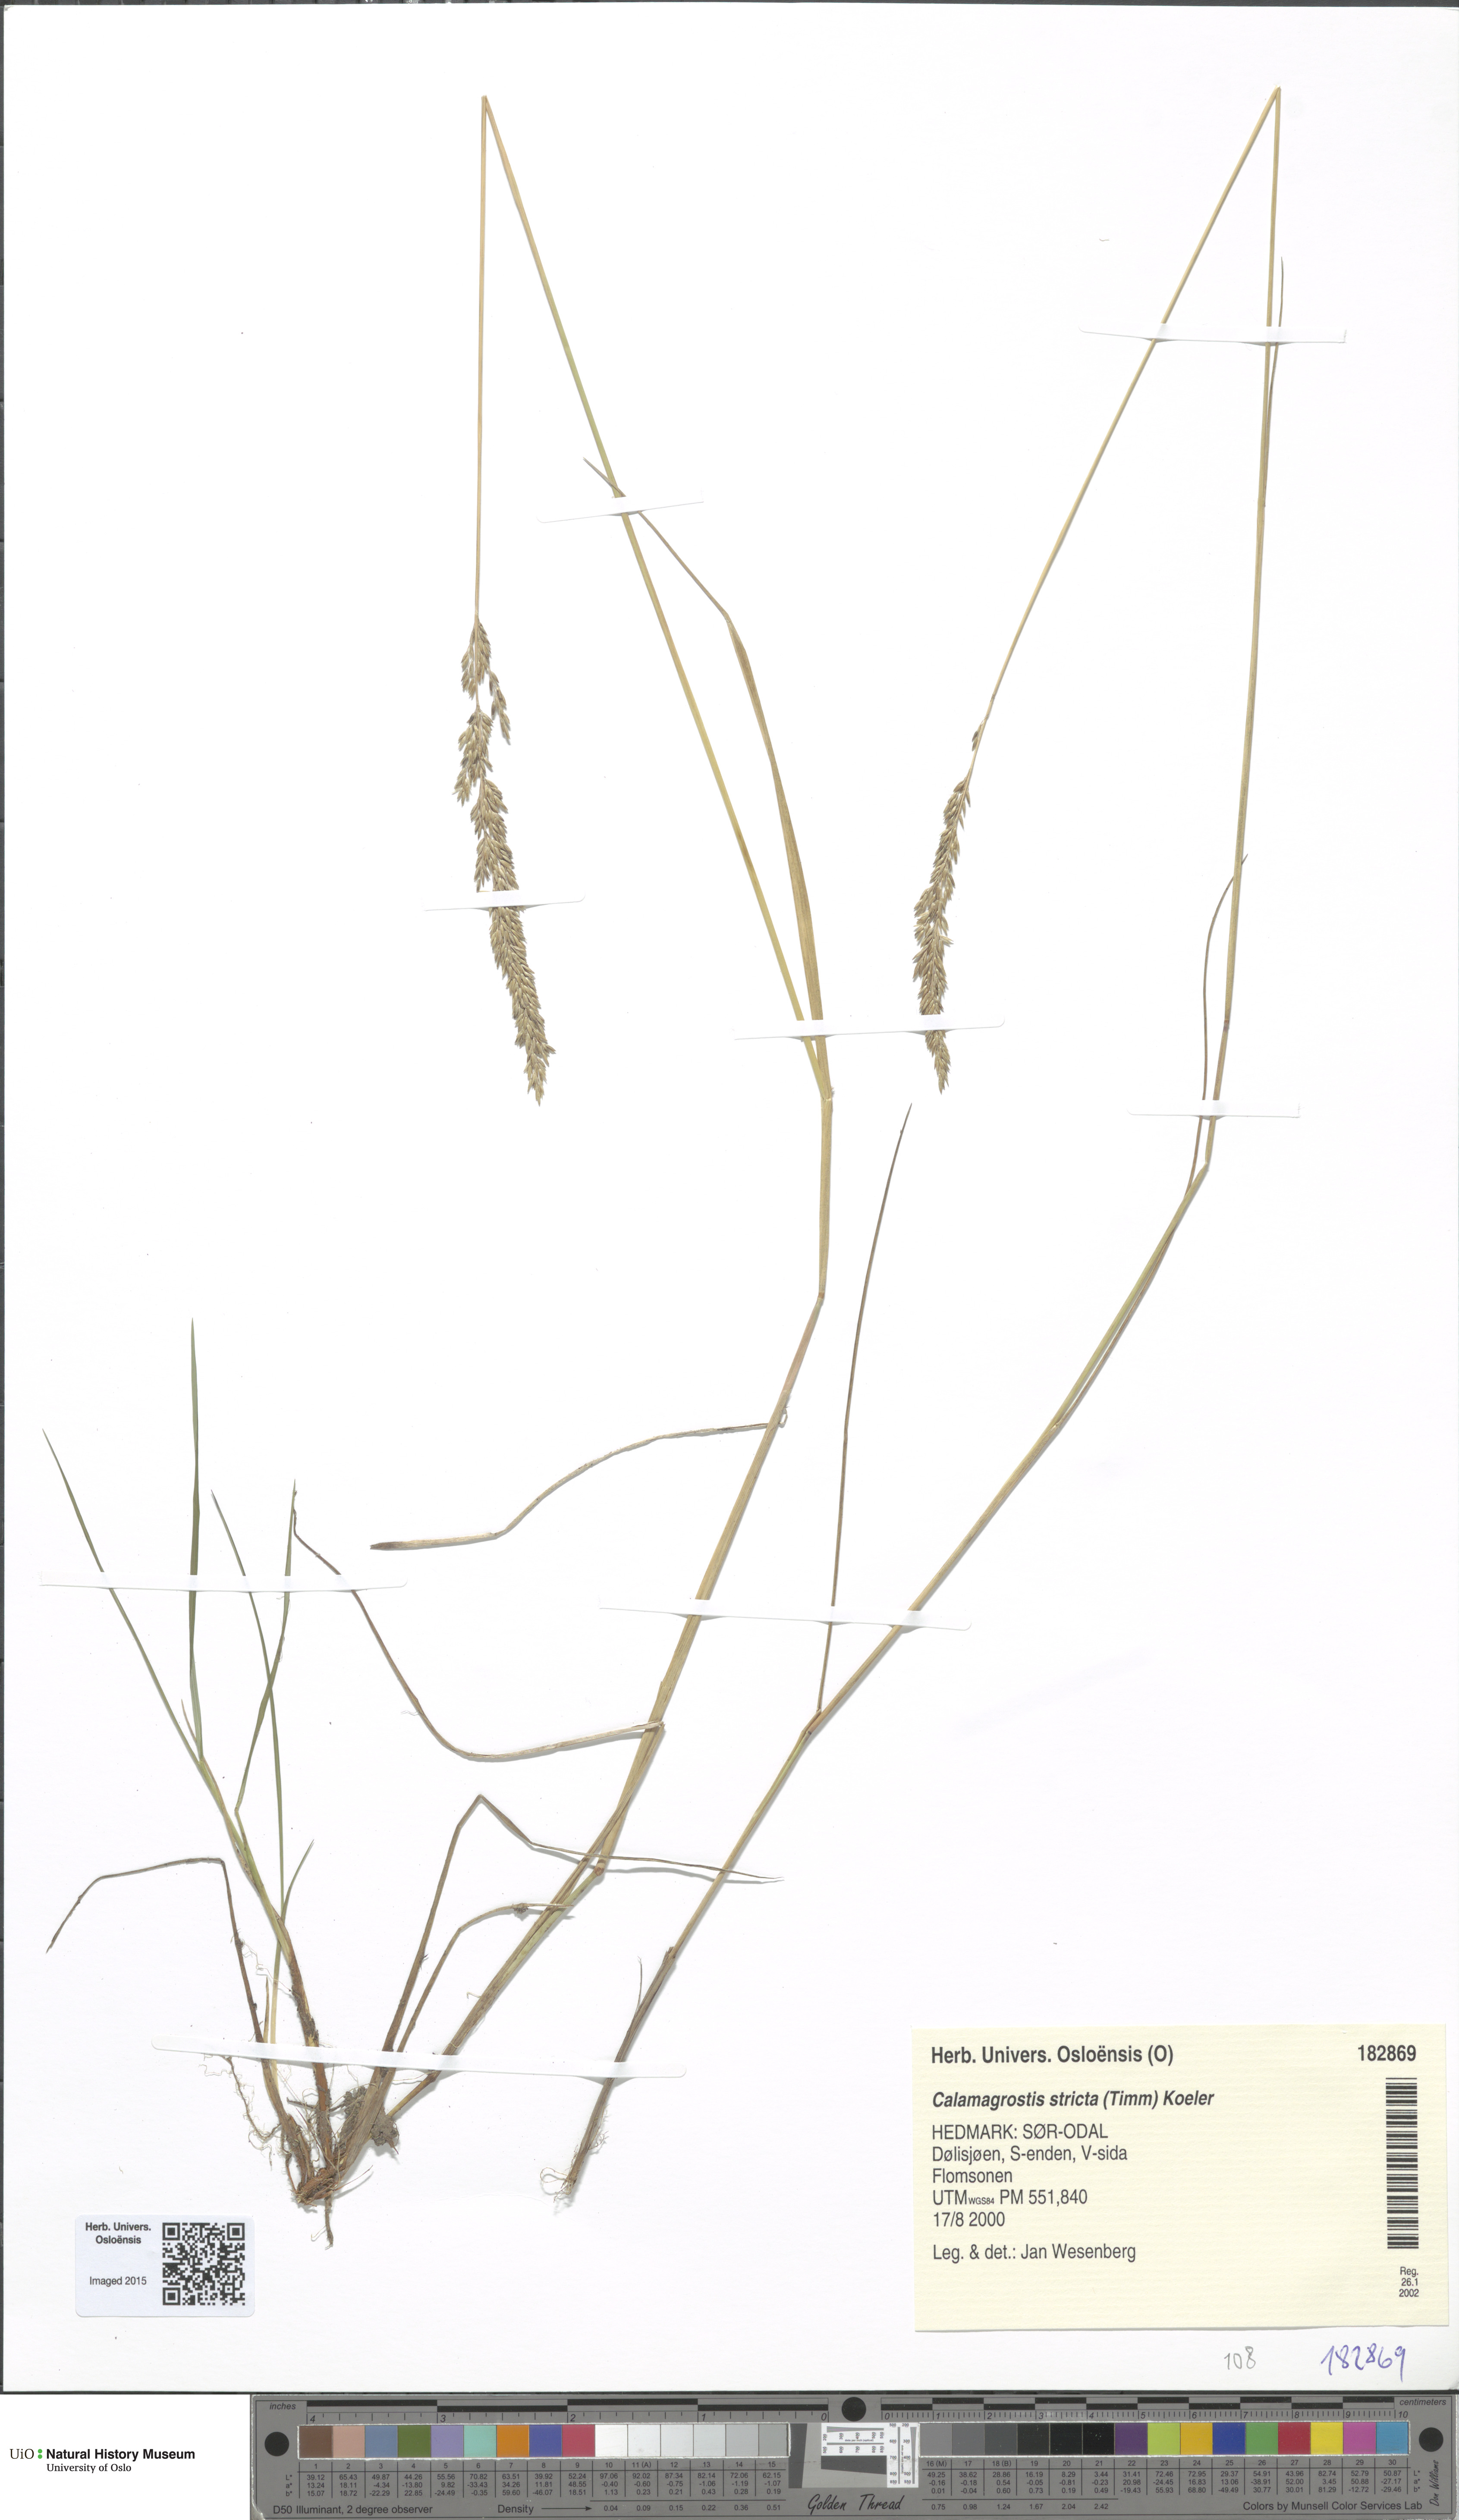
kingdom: Plantae
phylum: Tracheophyta
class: Liliopsida
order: Poales
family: Poaceae
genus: Achnatherum
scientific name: Achnatherum calamagrostis
